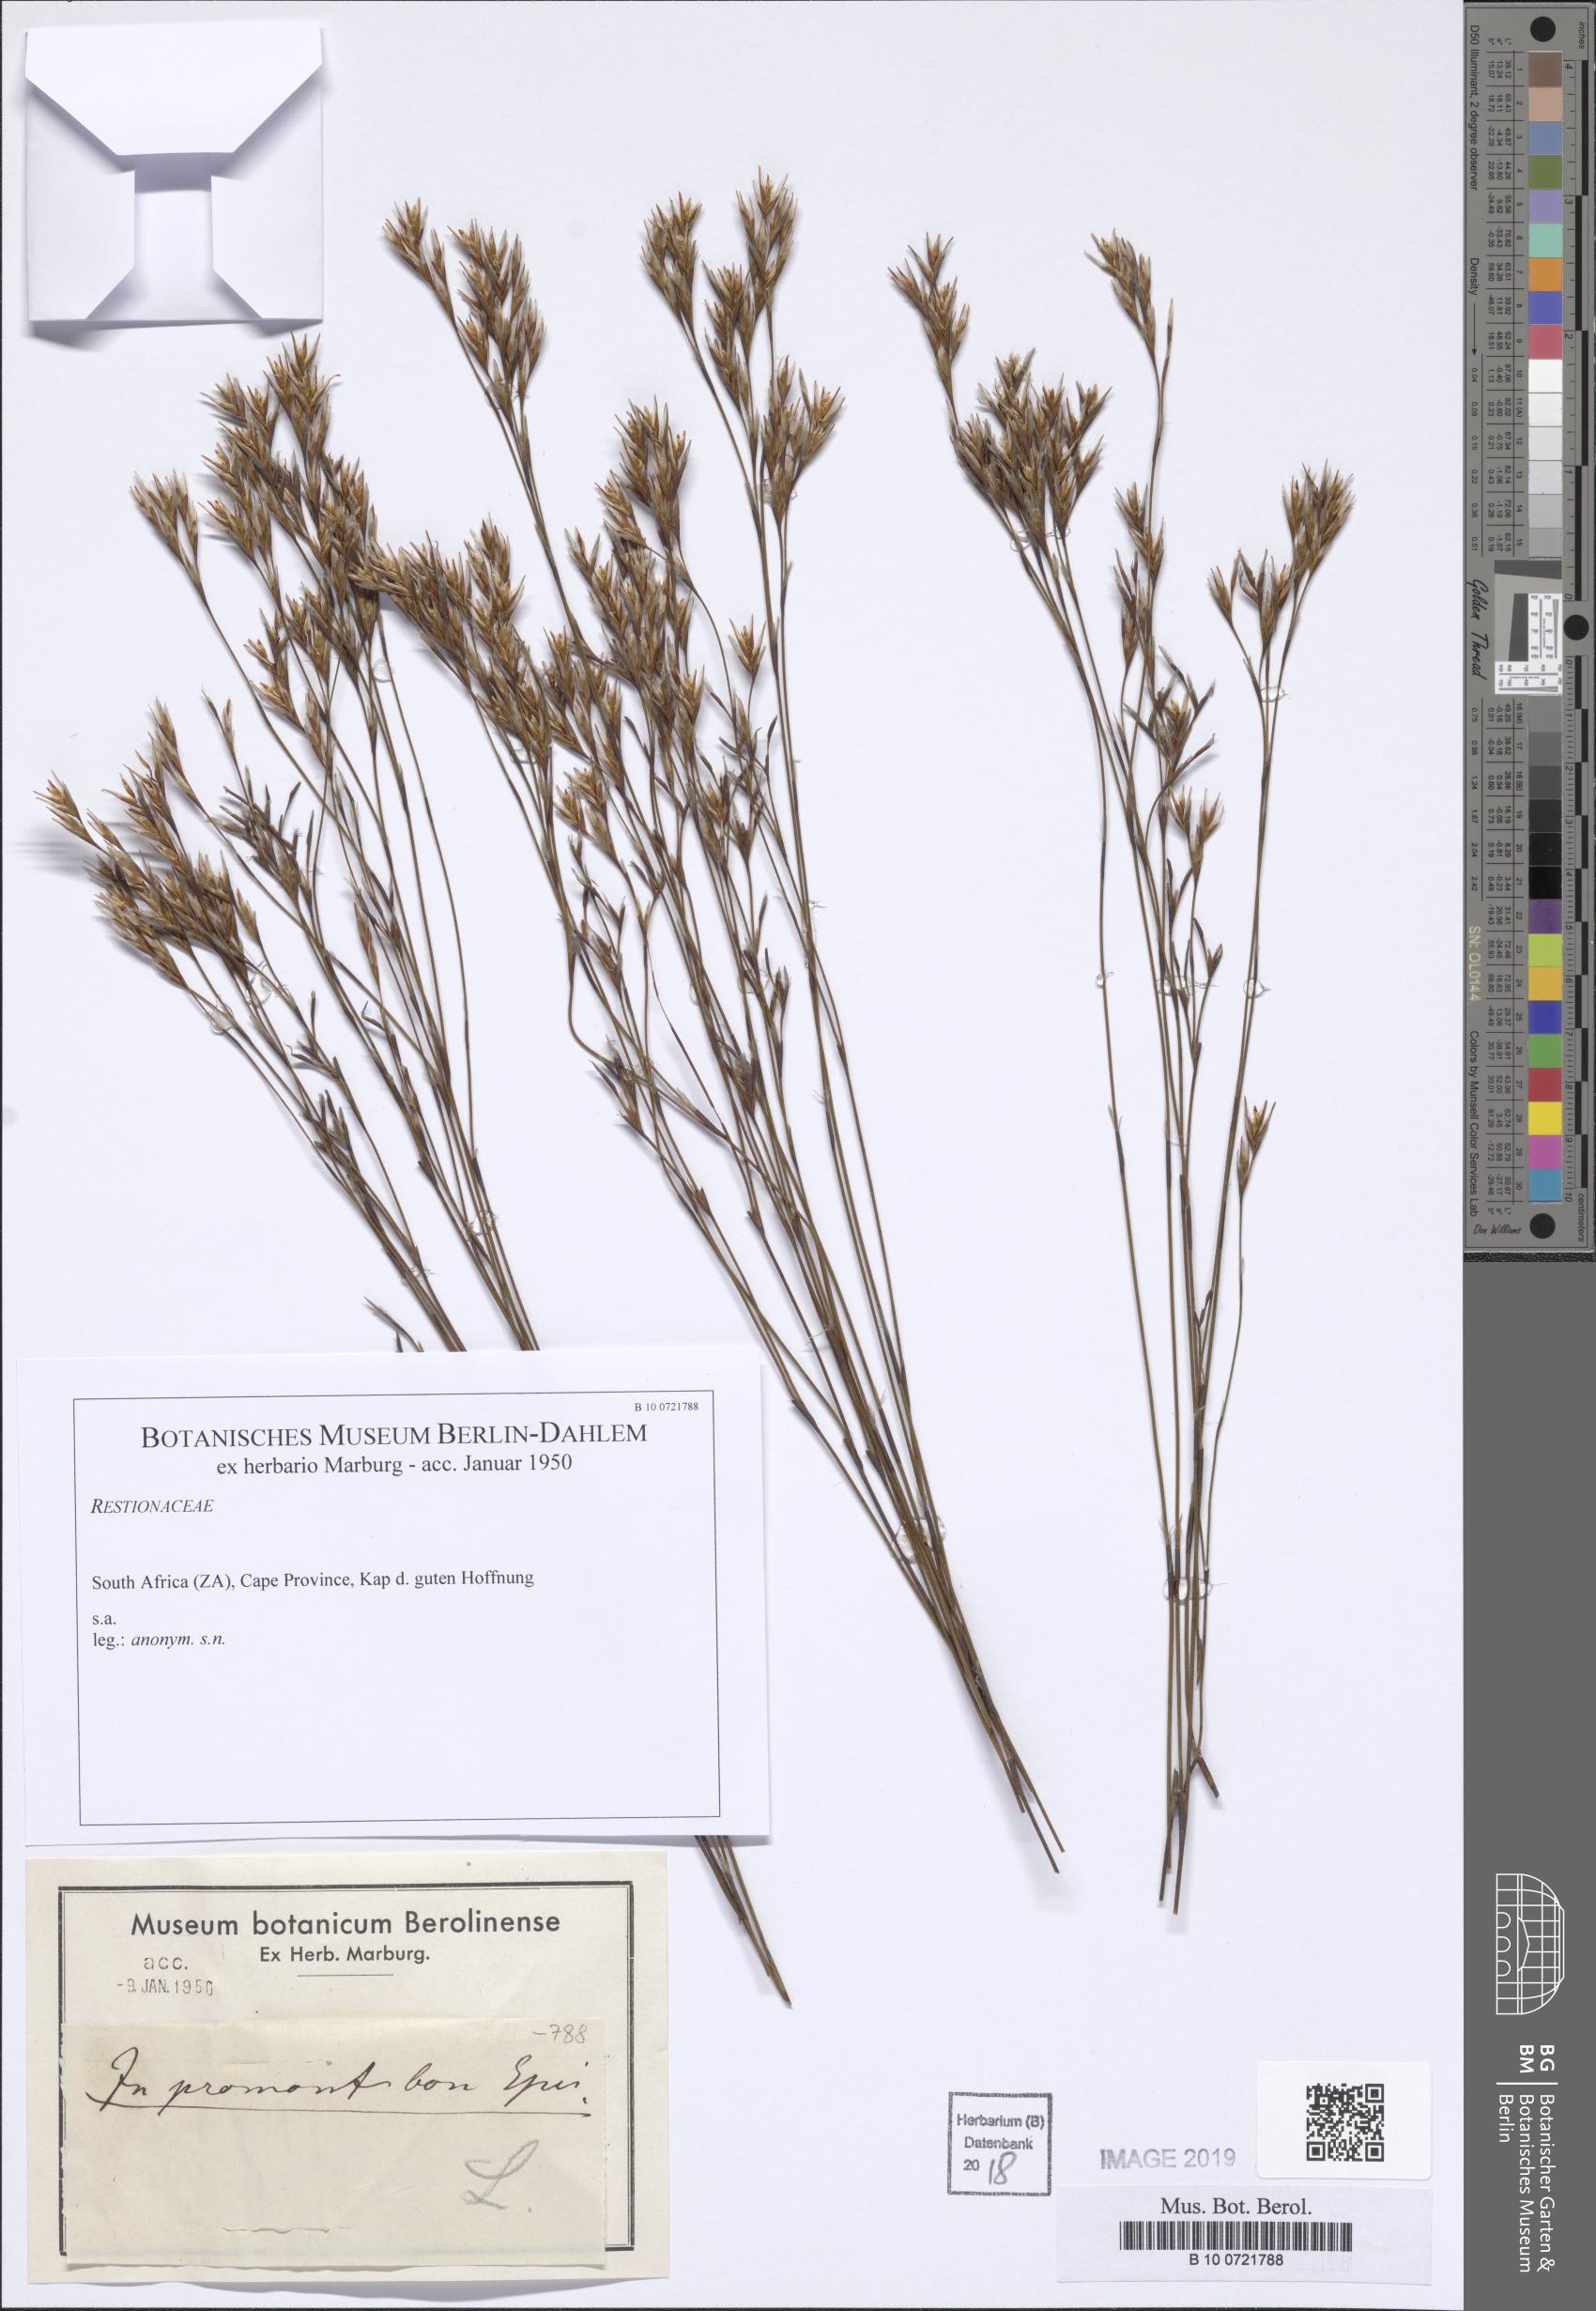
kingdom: Plantae
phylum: Tracheophyta
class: Liliopsida
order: Poales
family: Restionaceae
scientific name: Restionaceae
